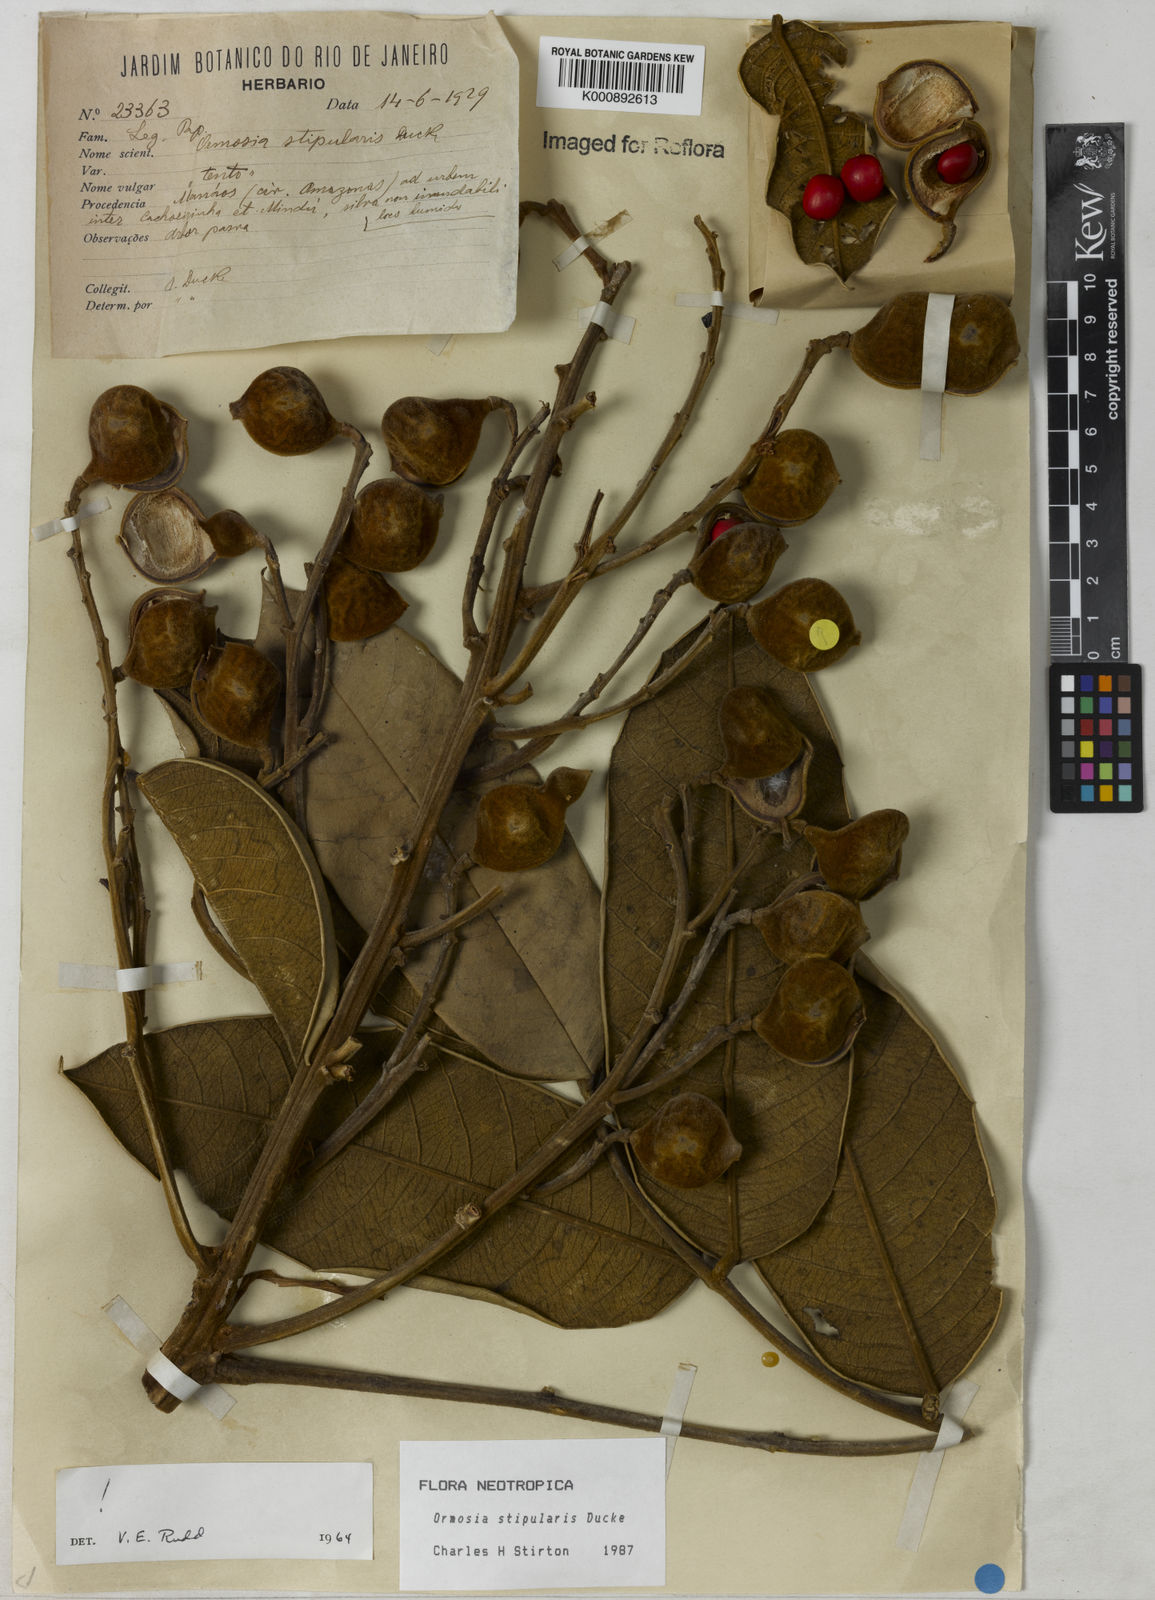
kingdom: Plantae
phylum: Tracheophyta
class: Magnoliopsida
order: Fabales
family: Fabaceae
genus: Ormosia
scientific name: Ormosia stipularis
